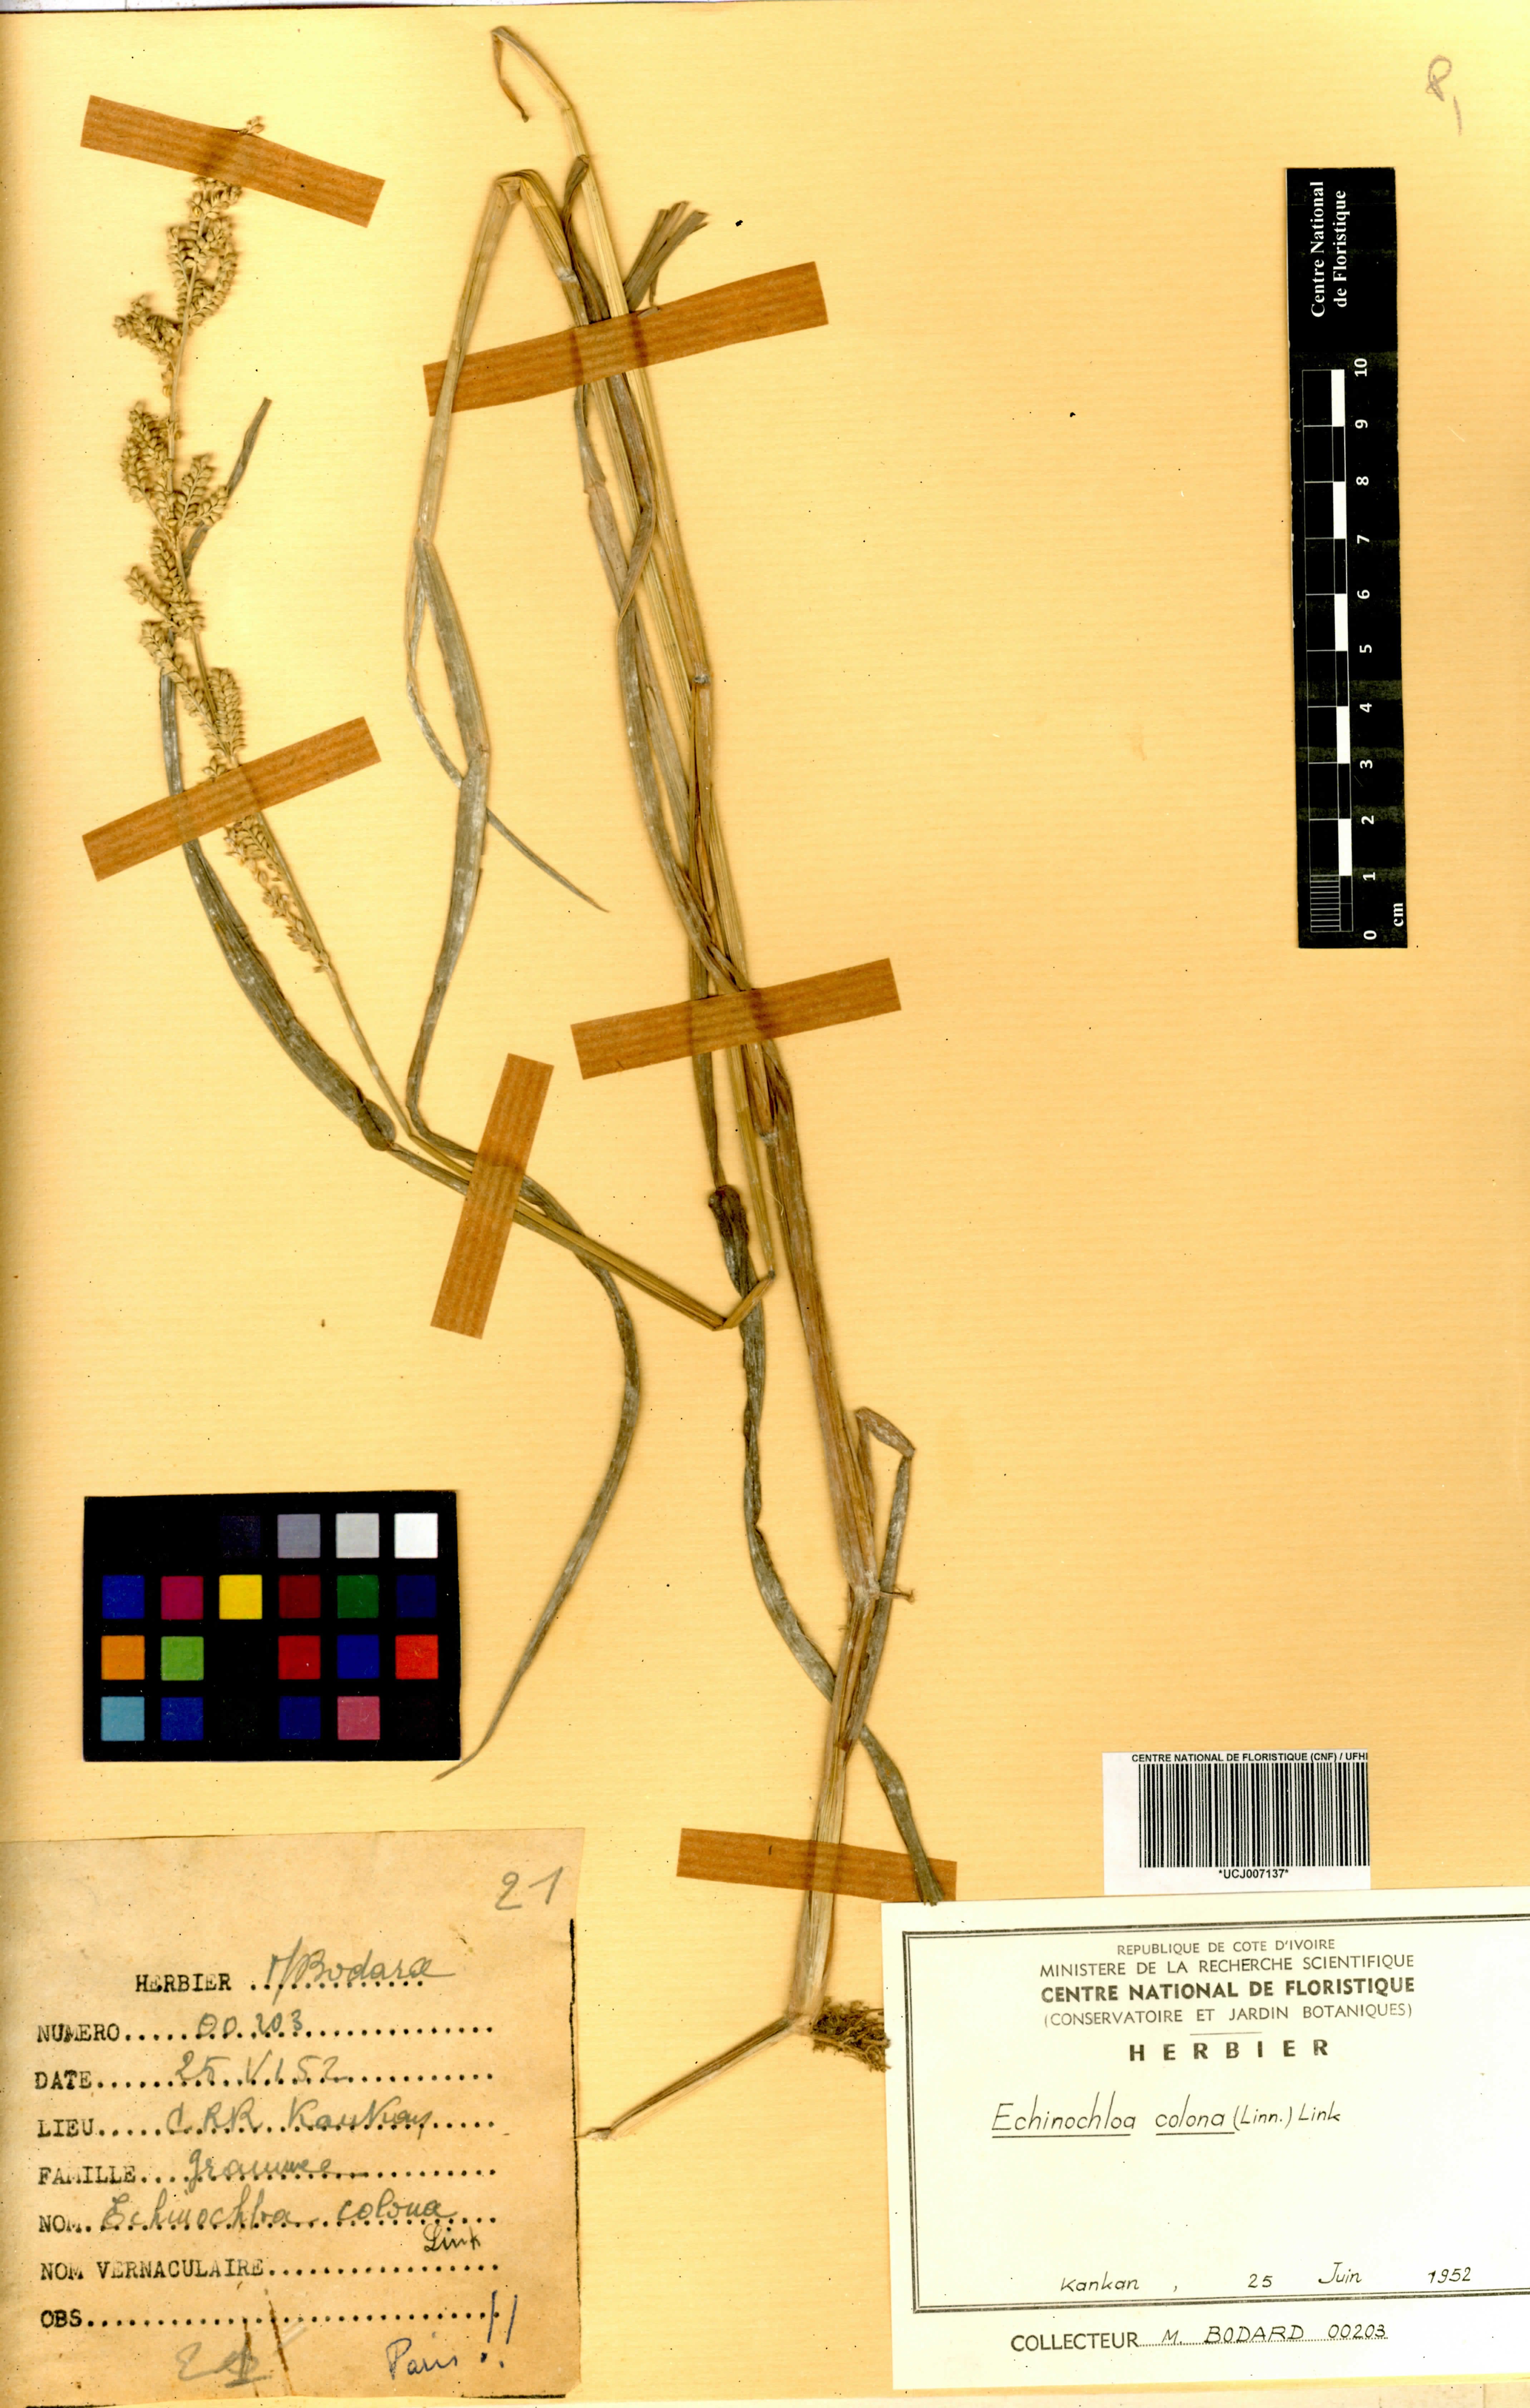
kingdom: Plantae
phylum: Tracheophyta
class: Liliopsida
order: Poales
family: Poaceae
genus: Echinochloa
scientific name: Echinochloa colonum
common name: Jungle rice
